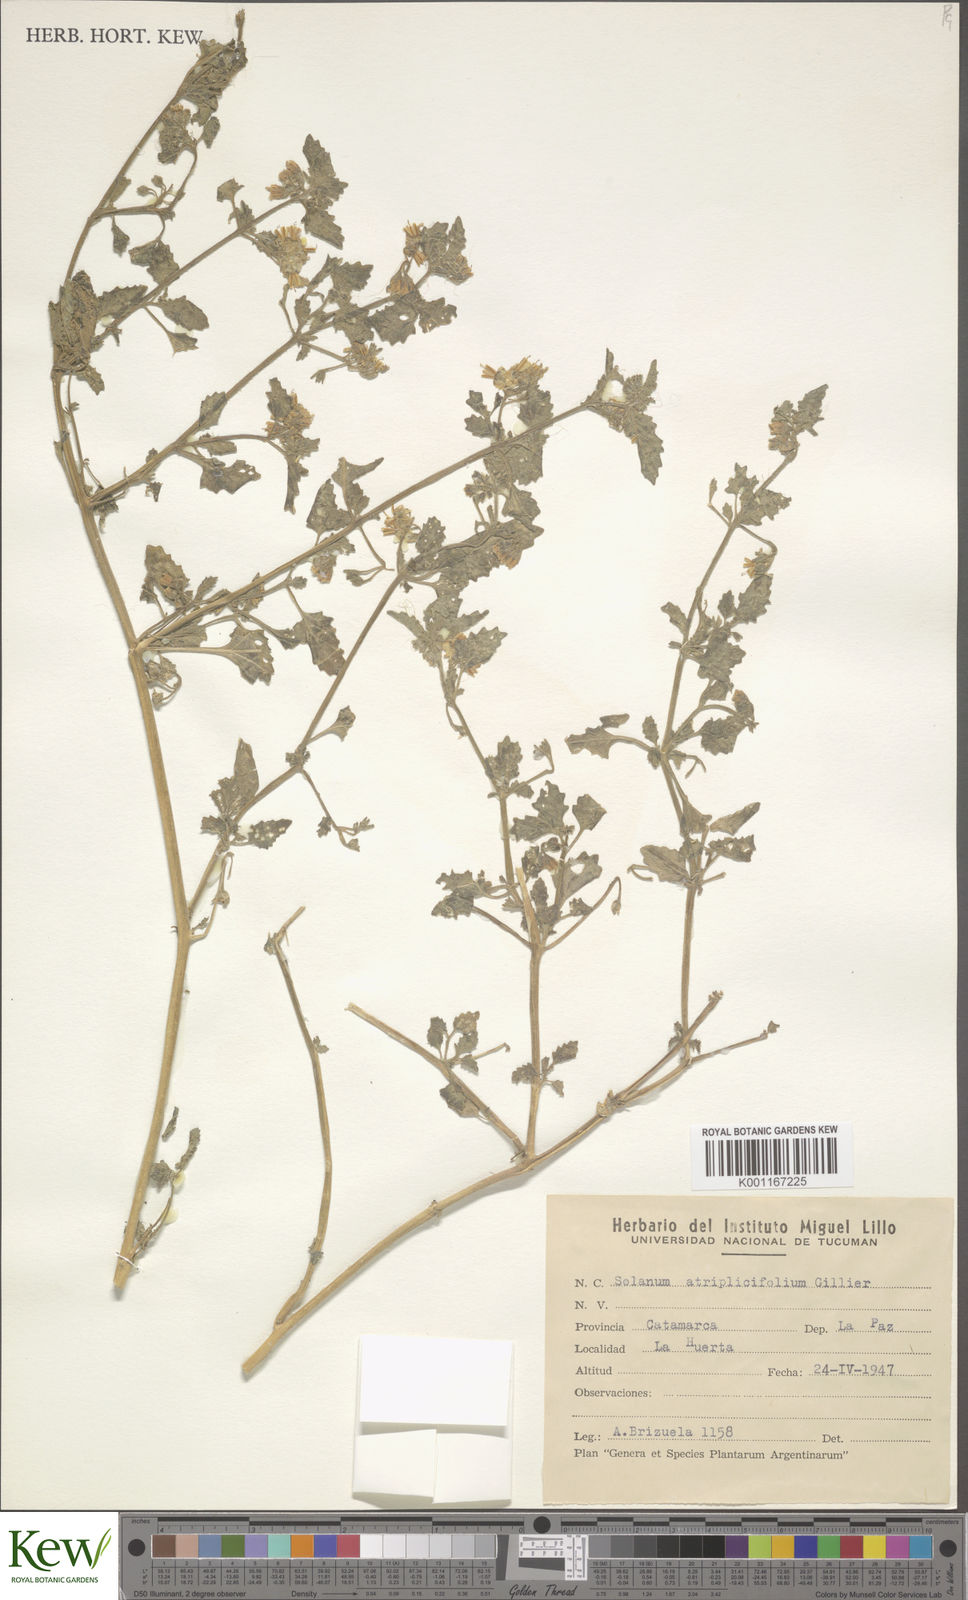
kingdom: Plantae
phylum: Tracheophyta
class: Magnoliopsida
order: Solanales
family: Solanaceae
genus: Solanum
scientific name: Solanum tweedieanum
